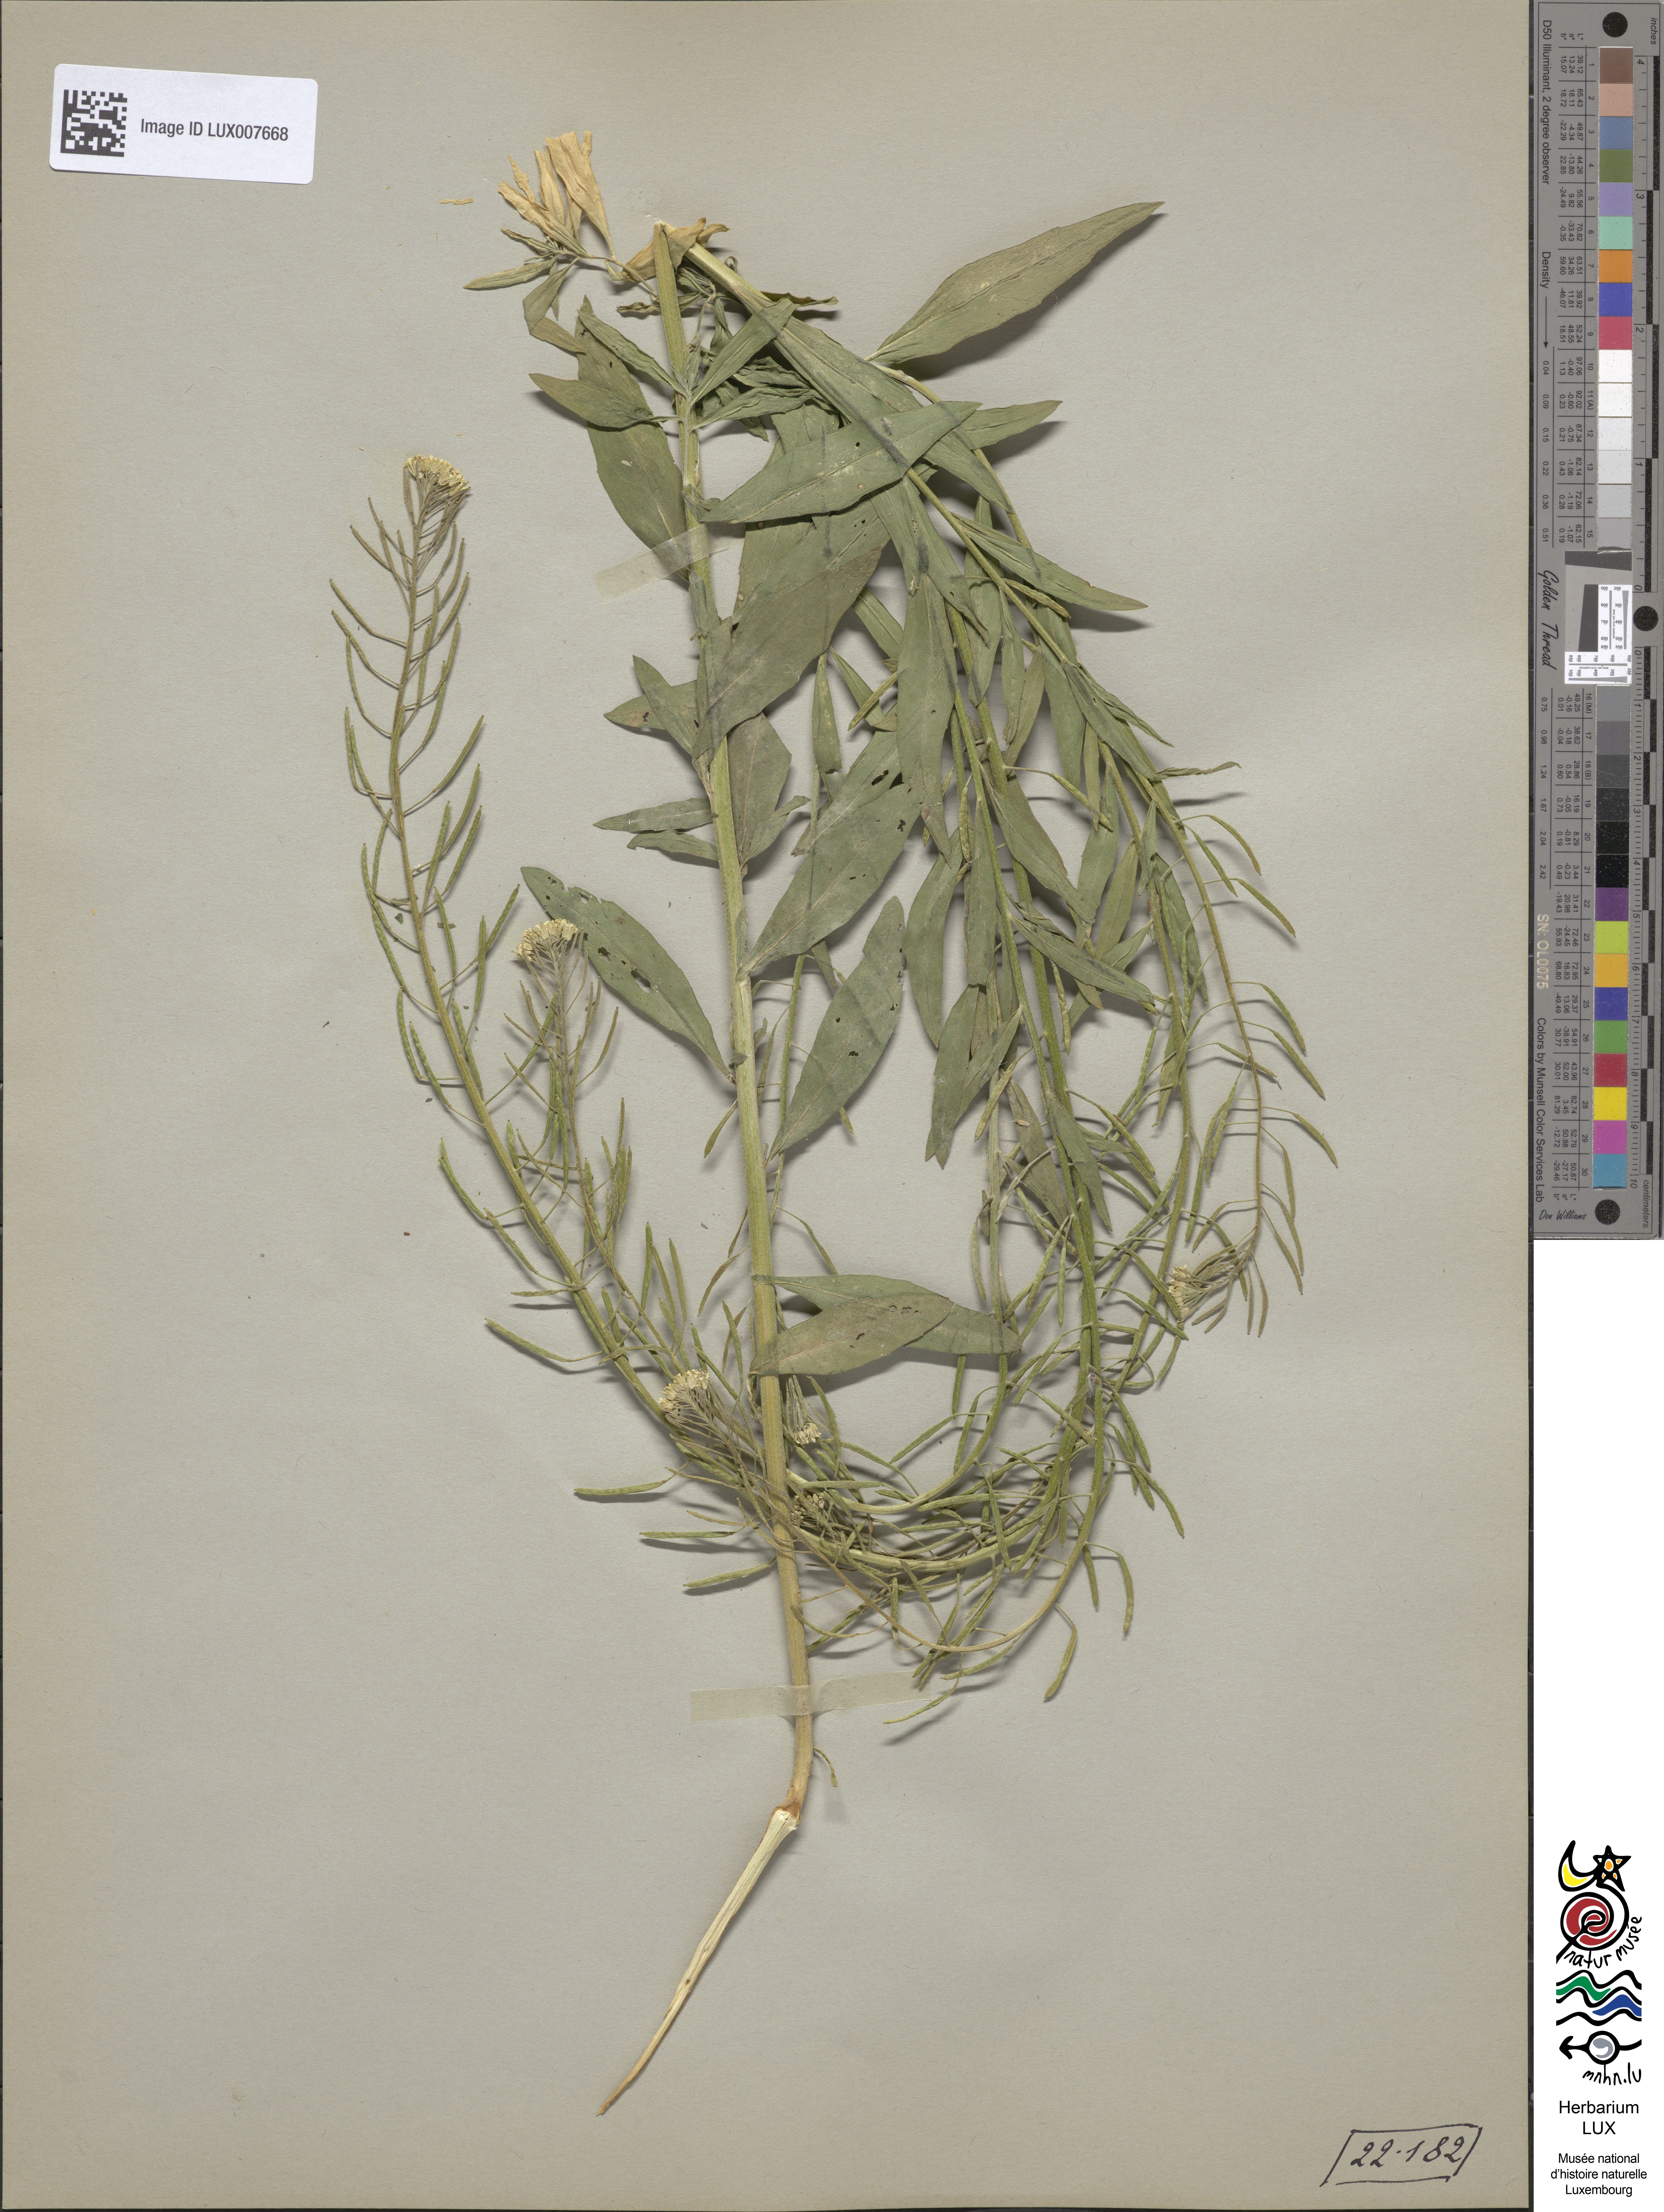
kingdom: Plantae
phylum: Tracheophyta
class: Magnoliopsida
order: Brassicales
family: Brassicaceae
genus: Erysimum
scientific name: Erysimum cheiranthoides
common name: Treacle mustard
